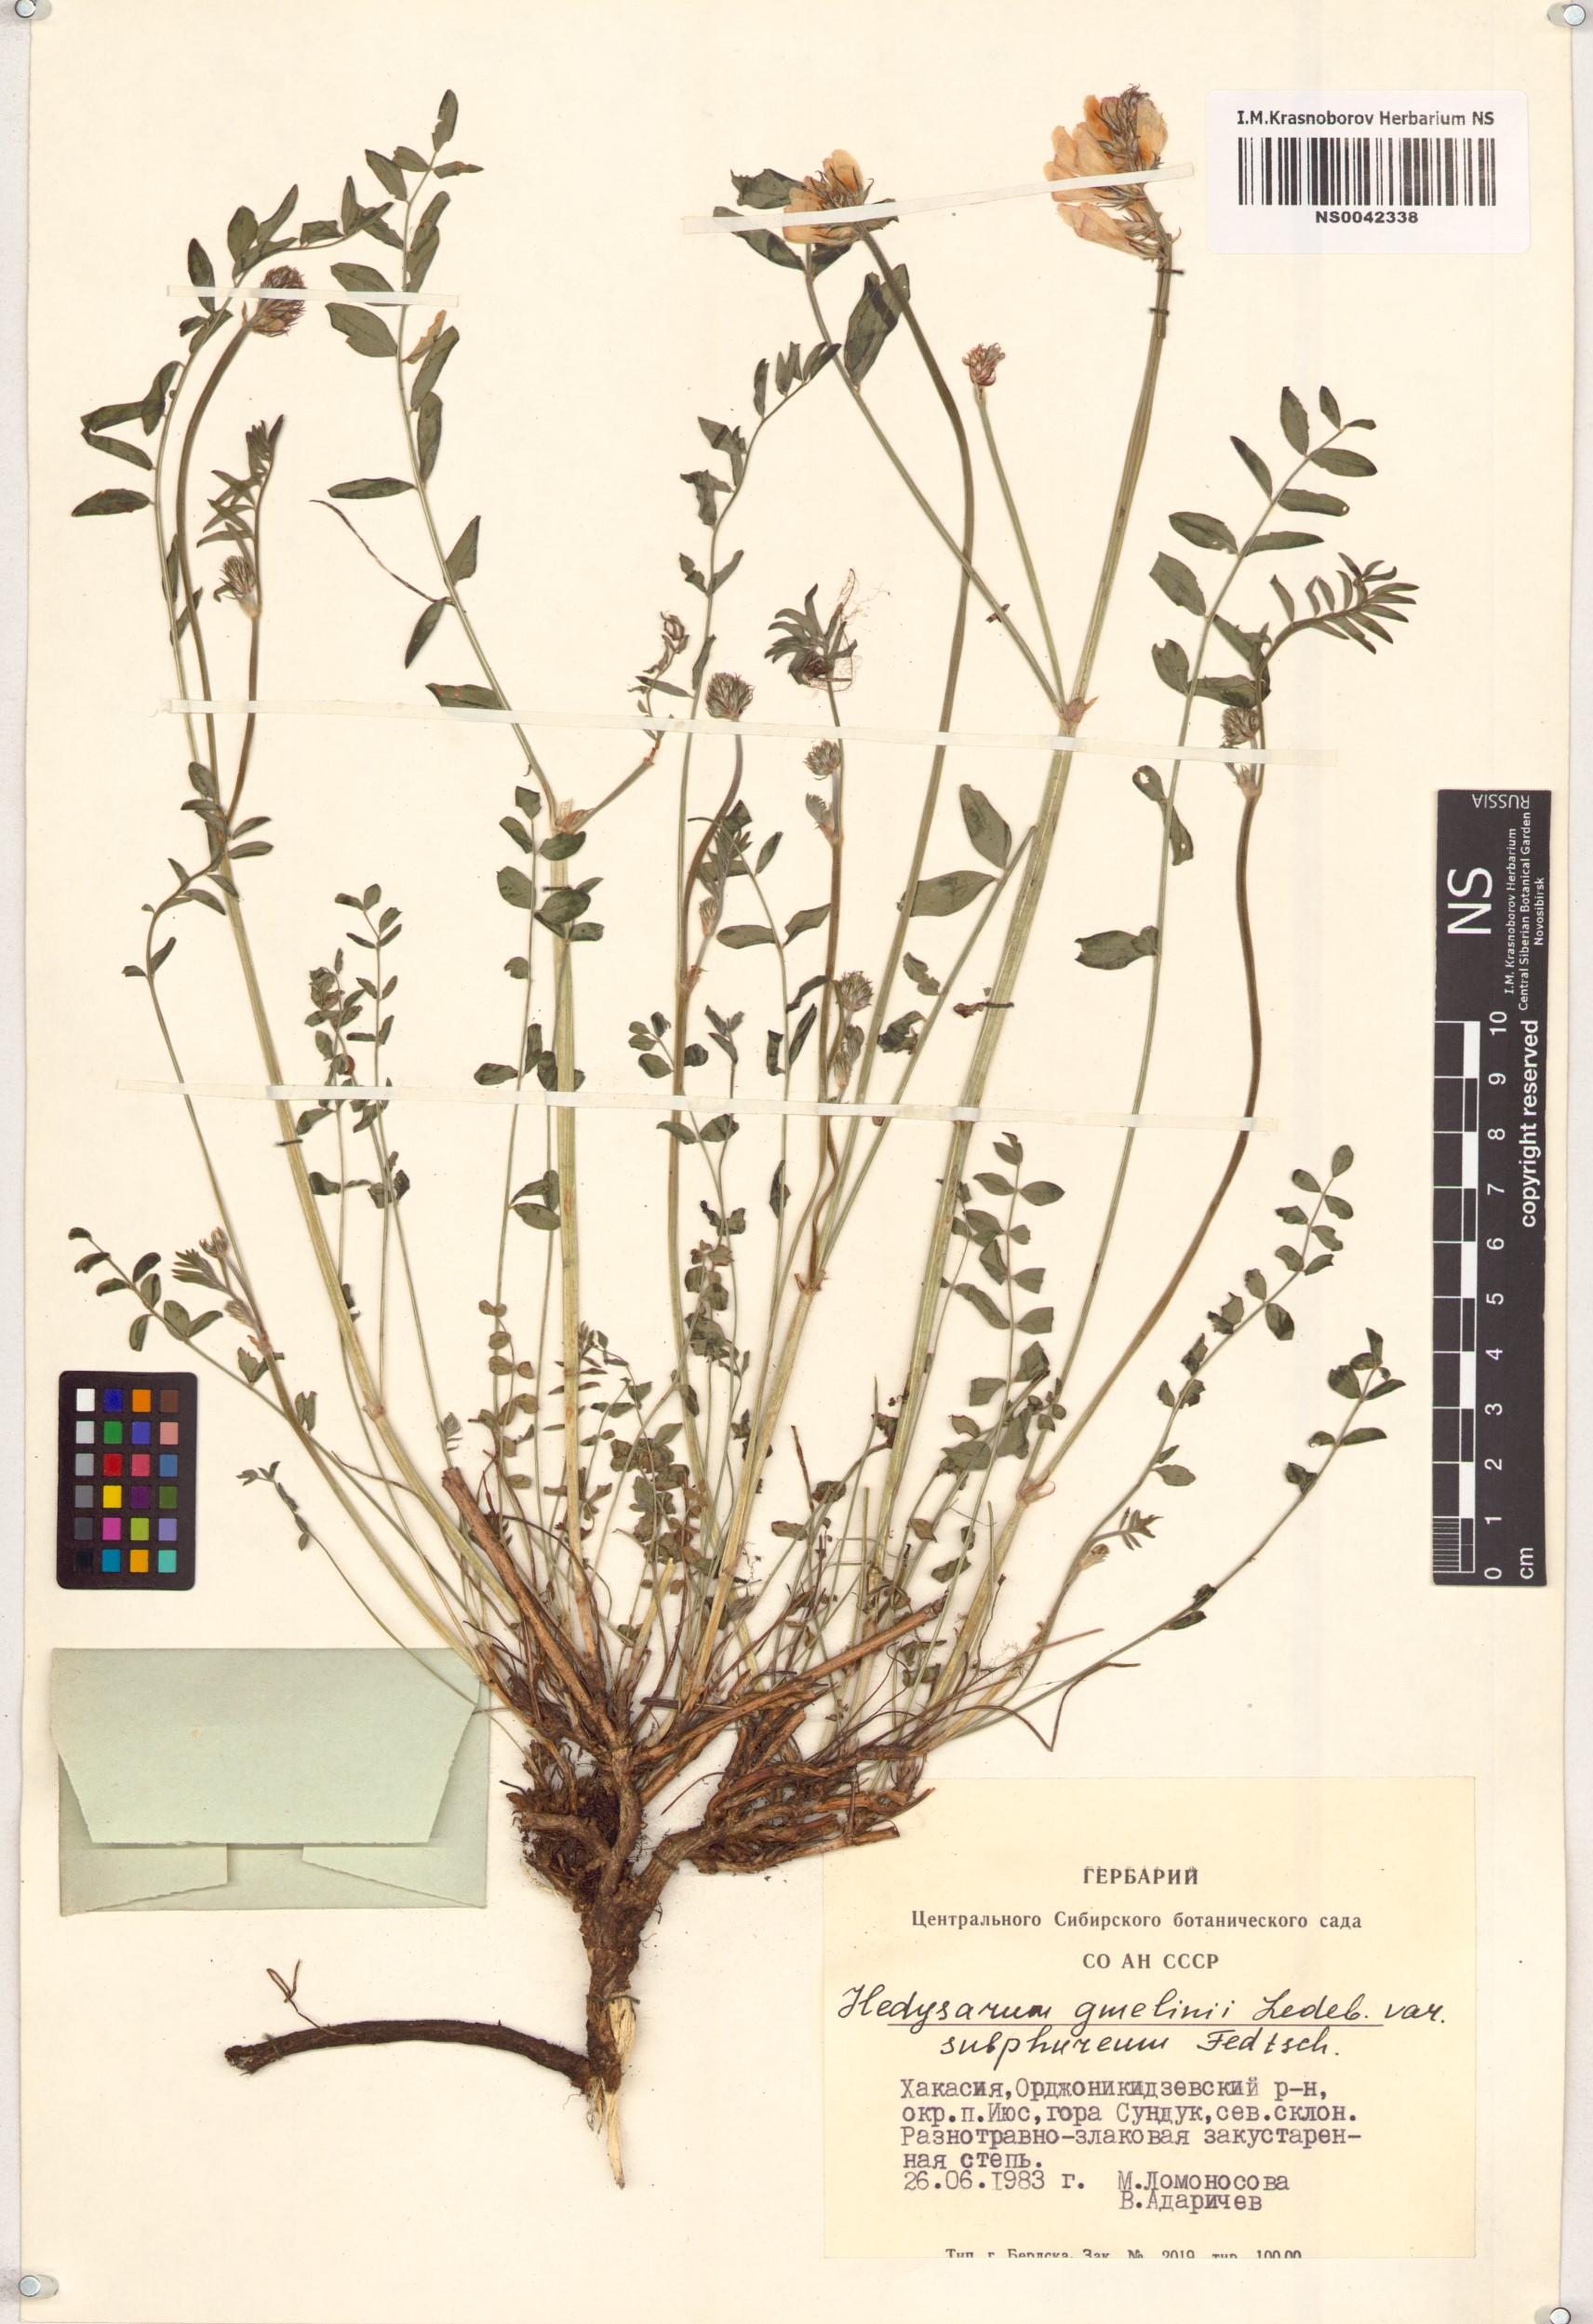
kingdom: Plantae
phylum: Tracheophyta
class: Magnoliopsida
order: Fabales
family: Fabaceae
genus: Hedysarum
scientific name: Hedysarum gmelinii
